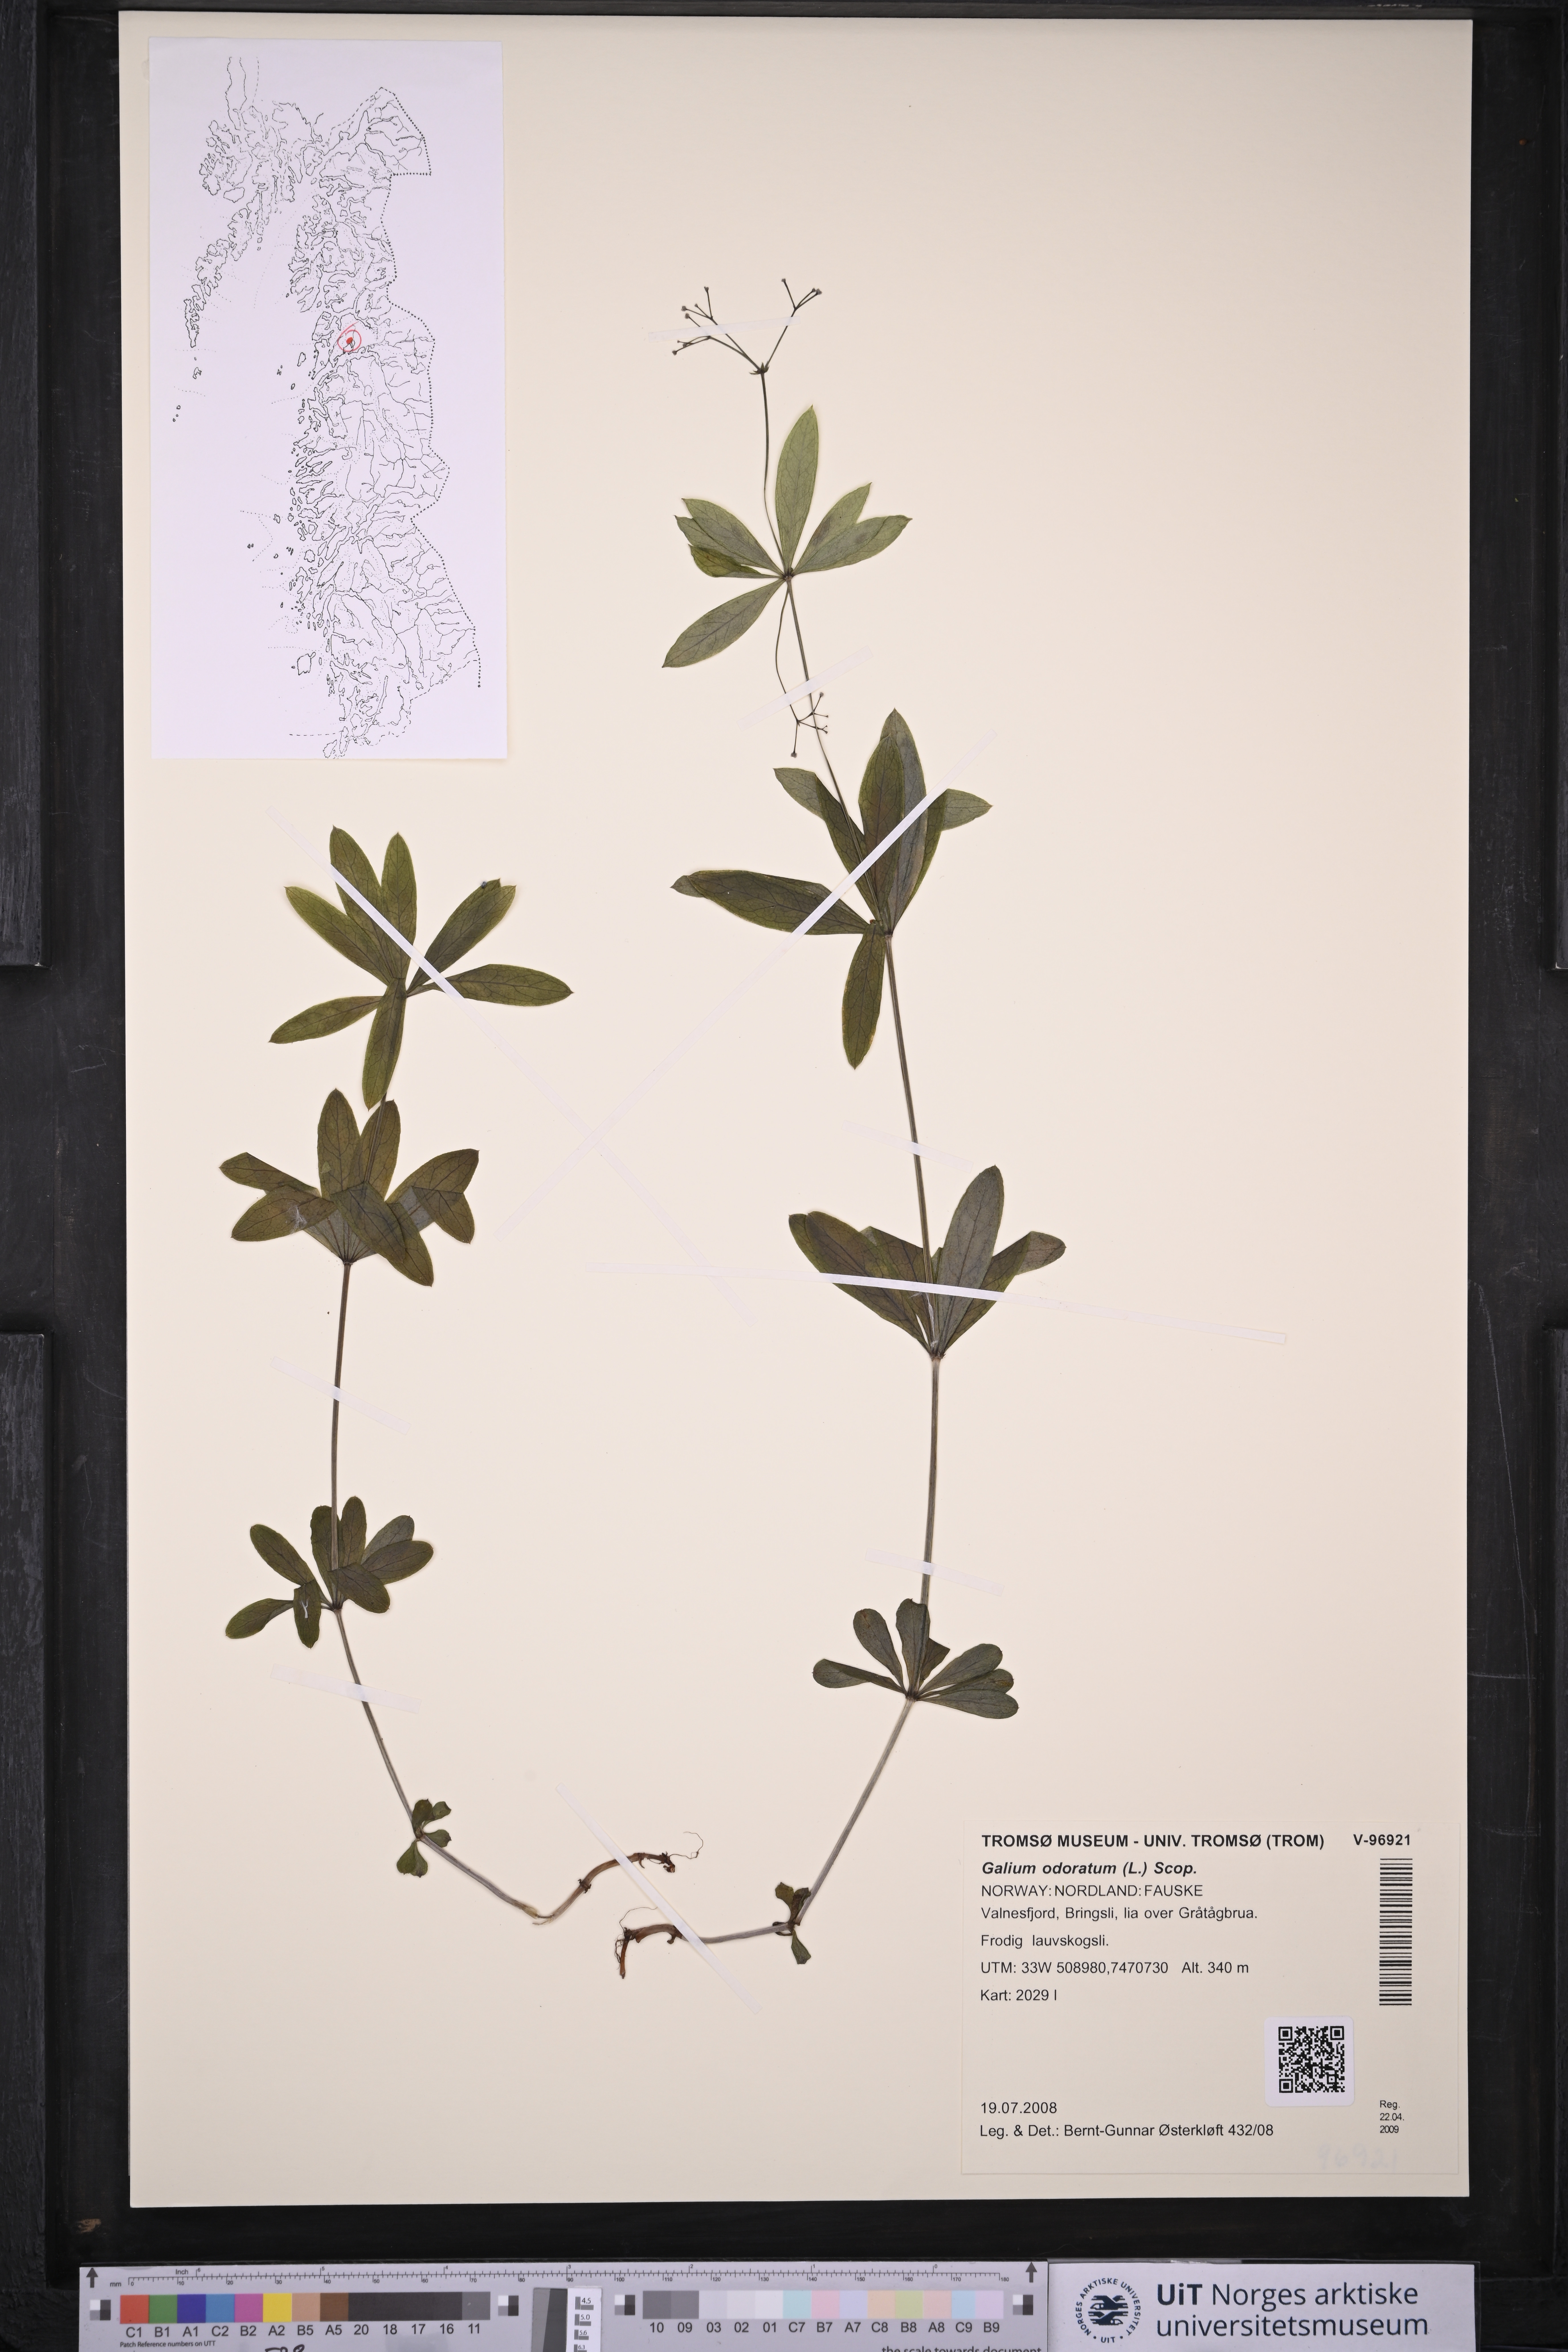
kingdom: Plantae
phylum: Tracheophyta
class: Magnoliopsida
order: Gentianales
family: Rubiaceae
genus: Galium
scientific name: Galium odoratum
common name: Sweet woodruff
